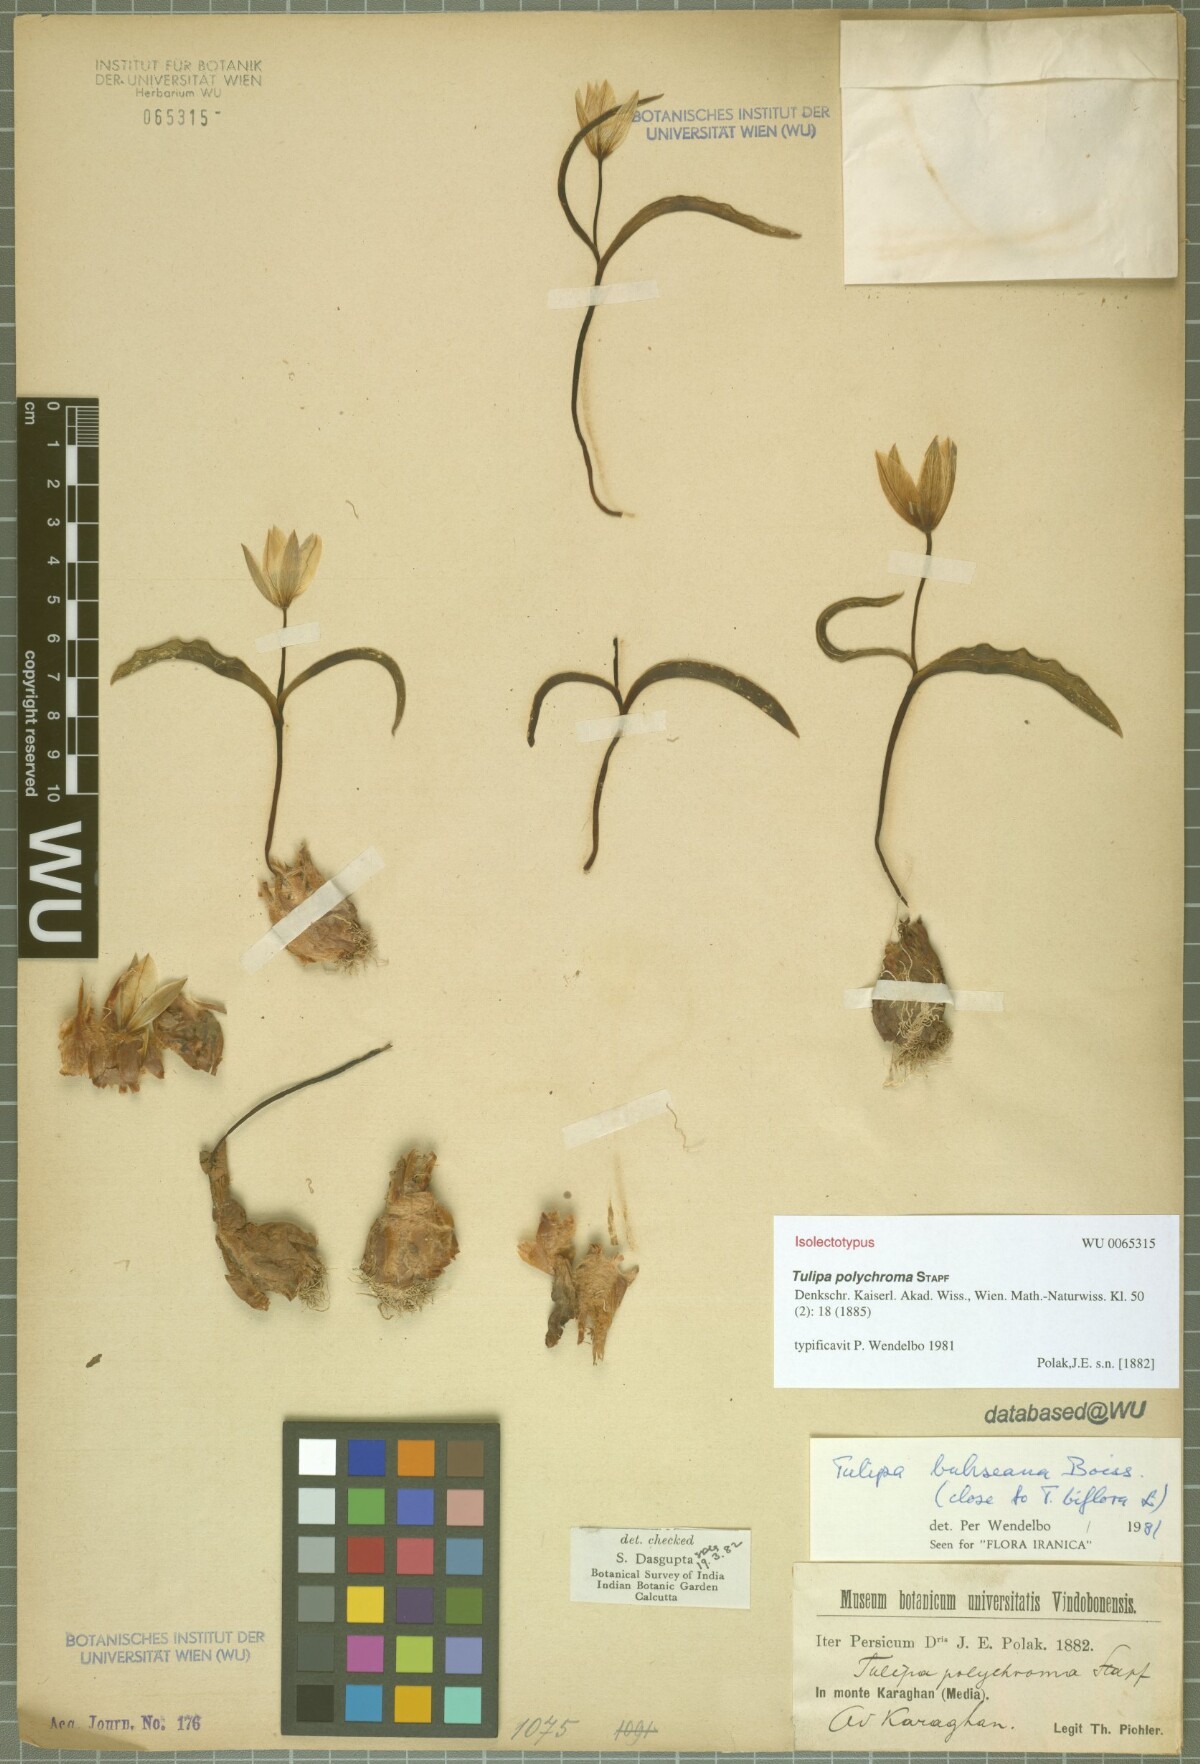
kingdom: Plantae
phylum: Tracheophyta
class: Liliopsida
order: Liliales
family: Liliaceae
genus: Tulipa
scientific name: Tulipa biflora
